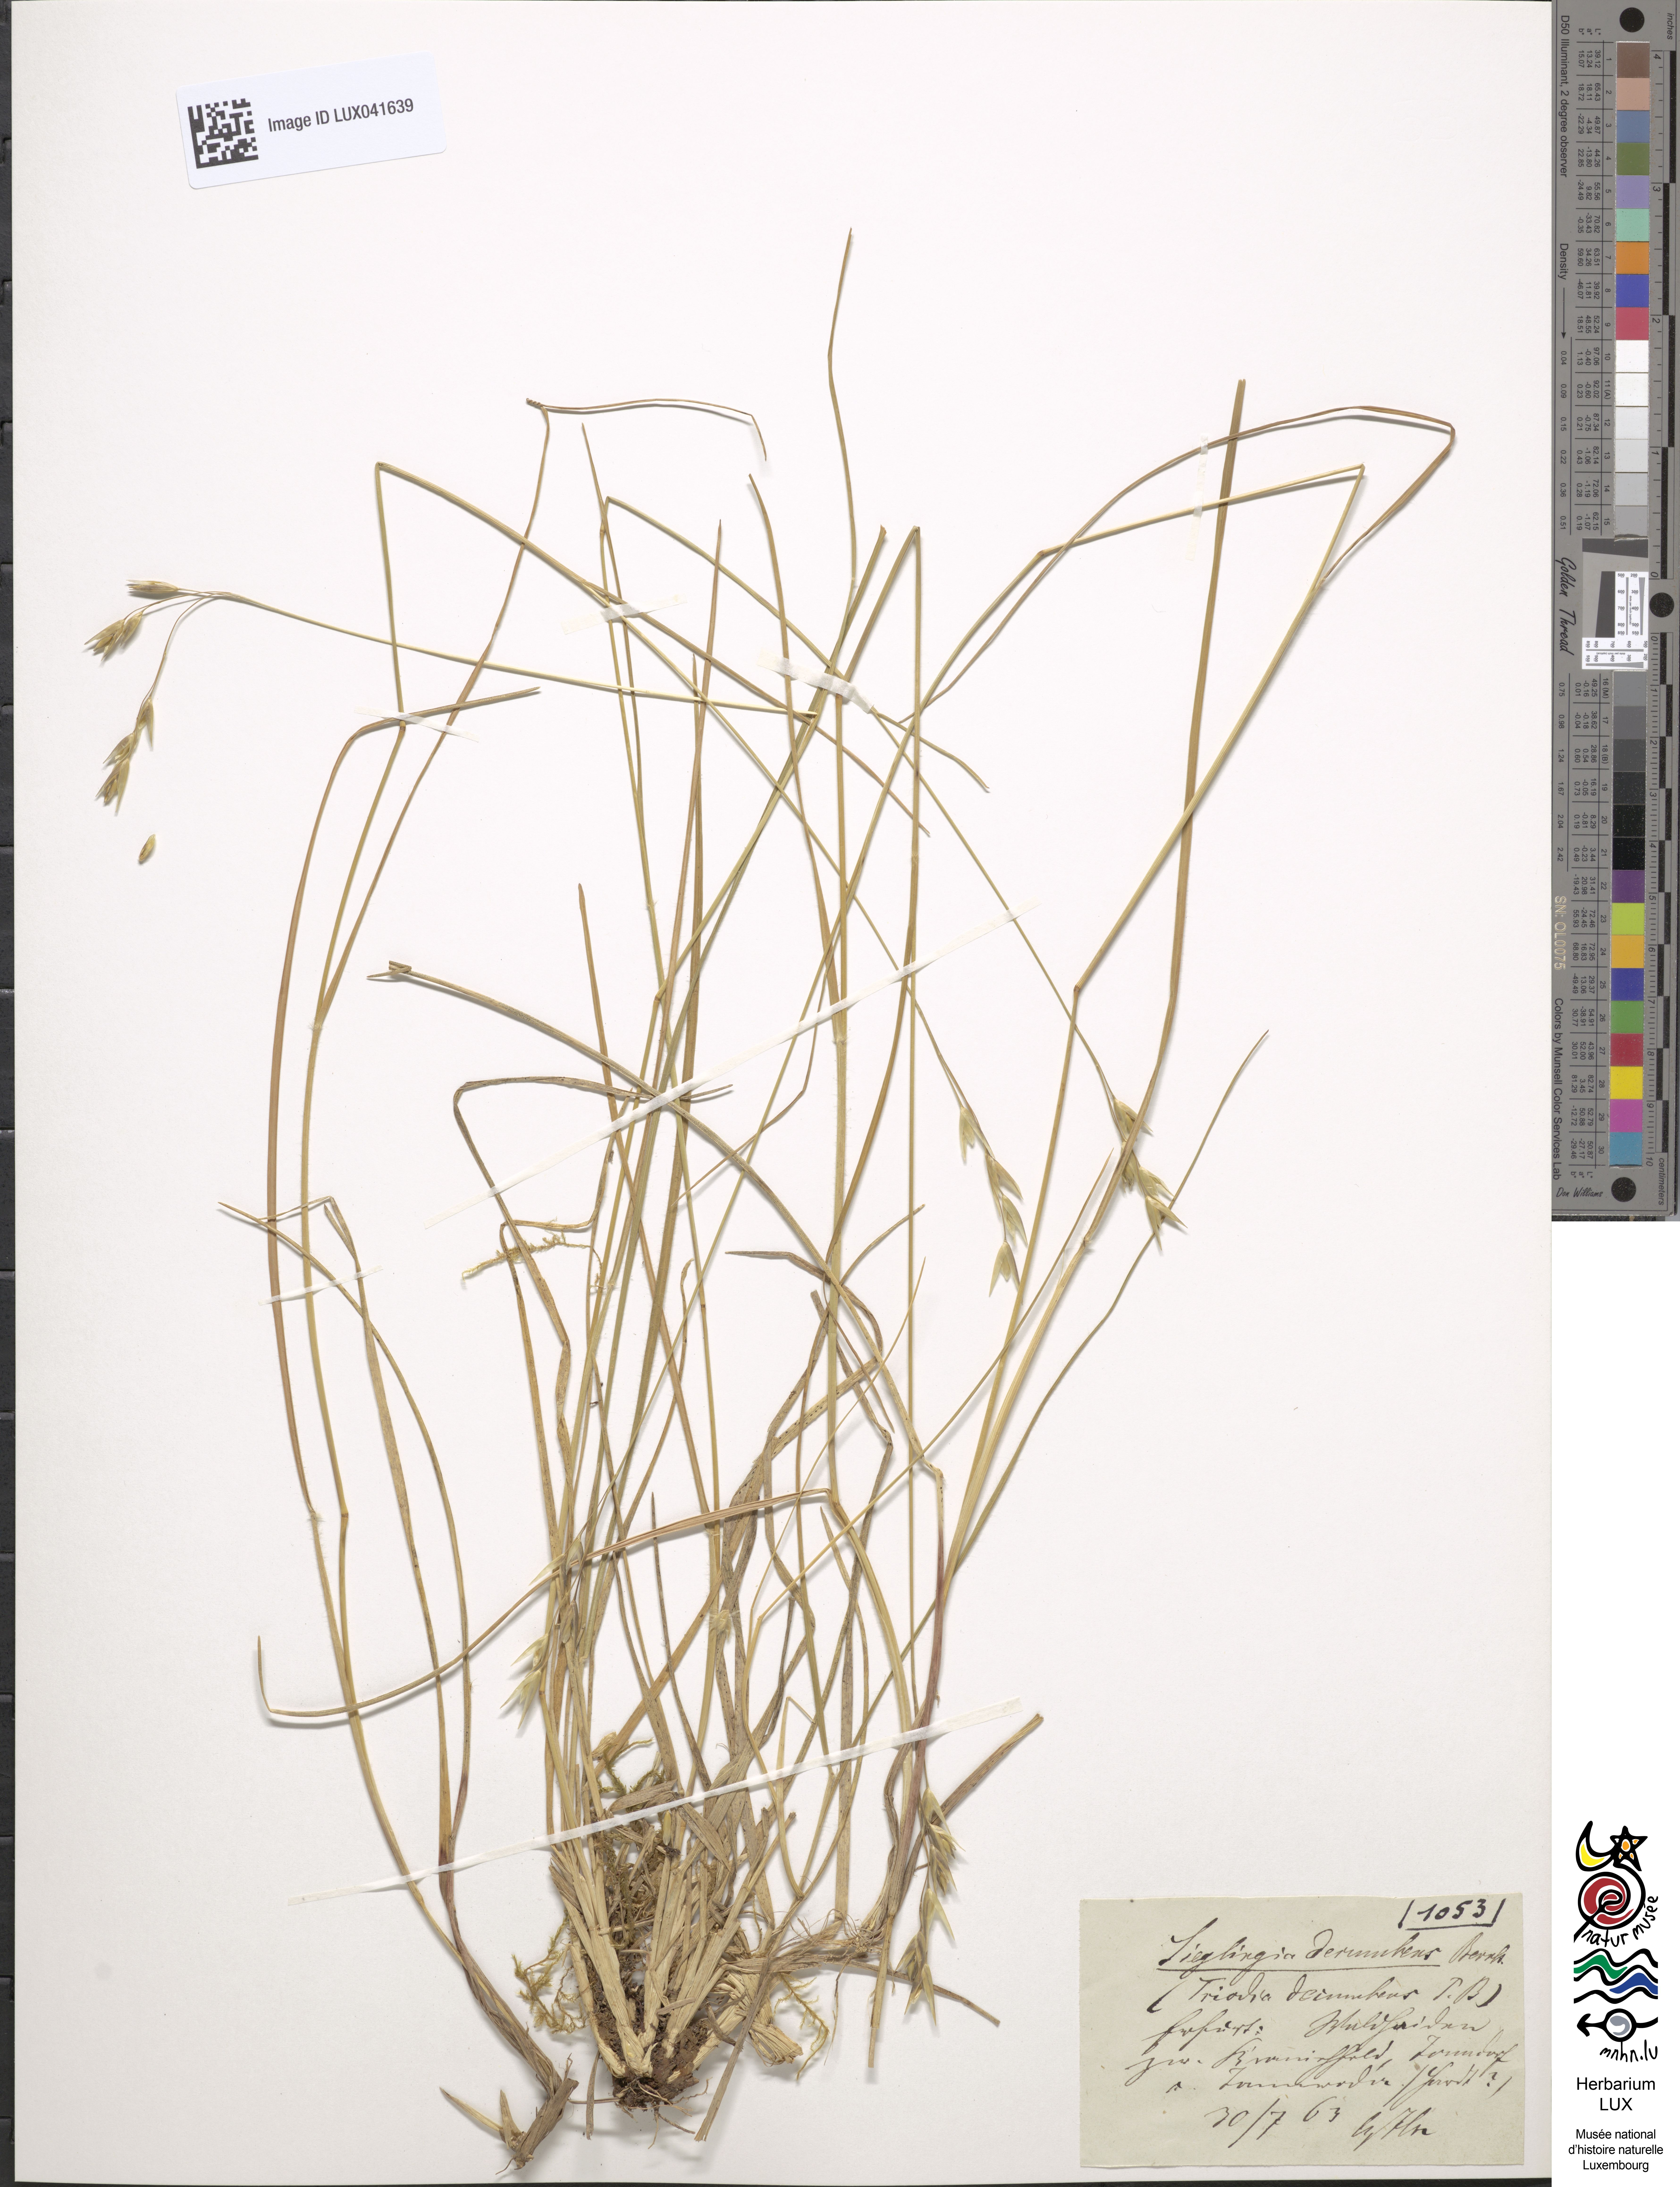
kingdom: Plantae
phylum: Tracheophyta
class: Liliopsida
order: Poales
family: Poaceae
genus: Danthonia
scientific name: Danthonia decumbens
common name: Common heathgrass
